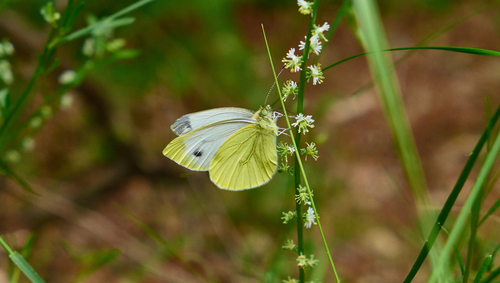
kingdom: Animalia
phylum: Arthropoda
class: Insecta
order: Lepidoptera
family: Pieridae
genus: Pieris
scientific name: Pieris napi
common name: Green-veined white
